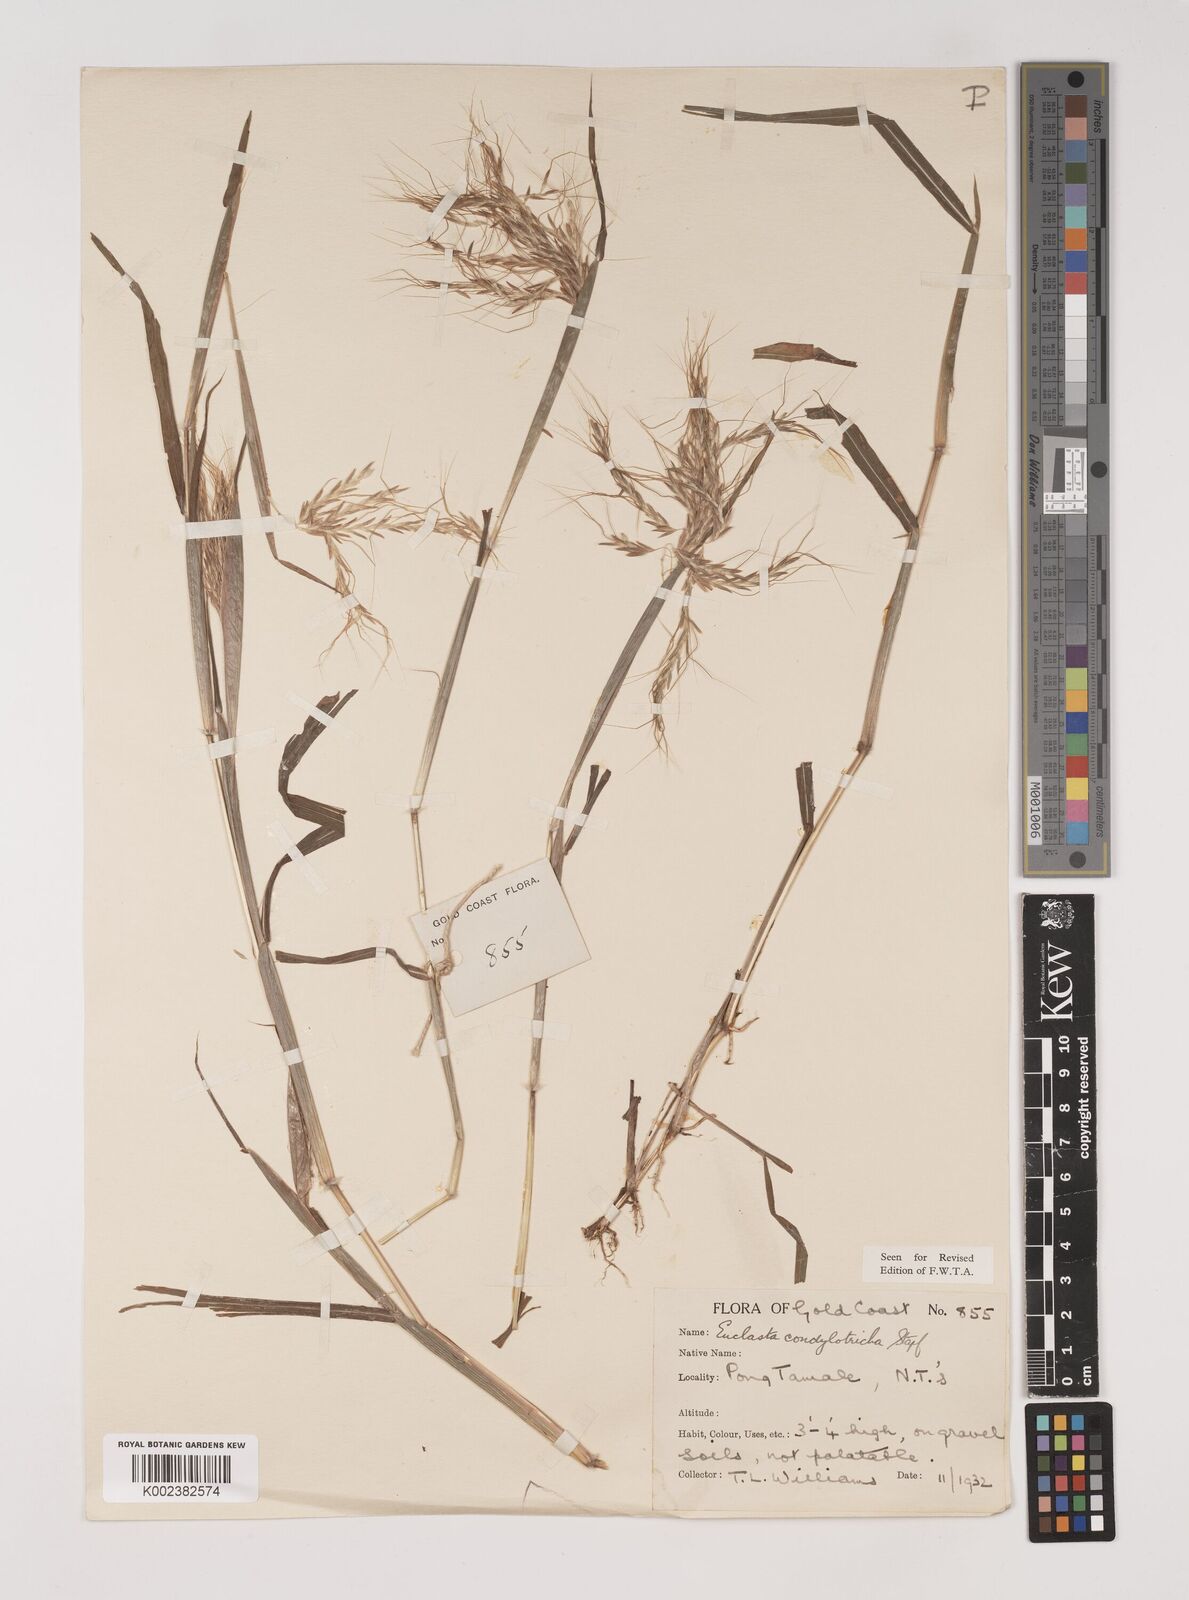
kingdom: Plantae
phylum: Tracheophyta
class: Liliopsida
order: Poales
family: Poaceae
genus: Euclasta
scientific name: Euclasta condylotricha
